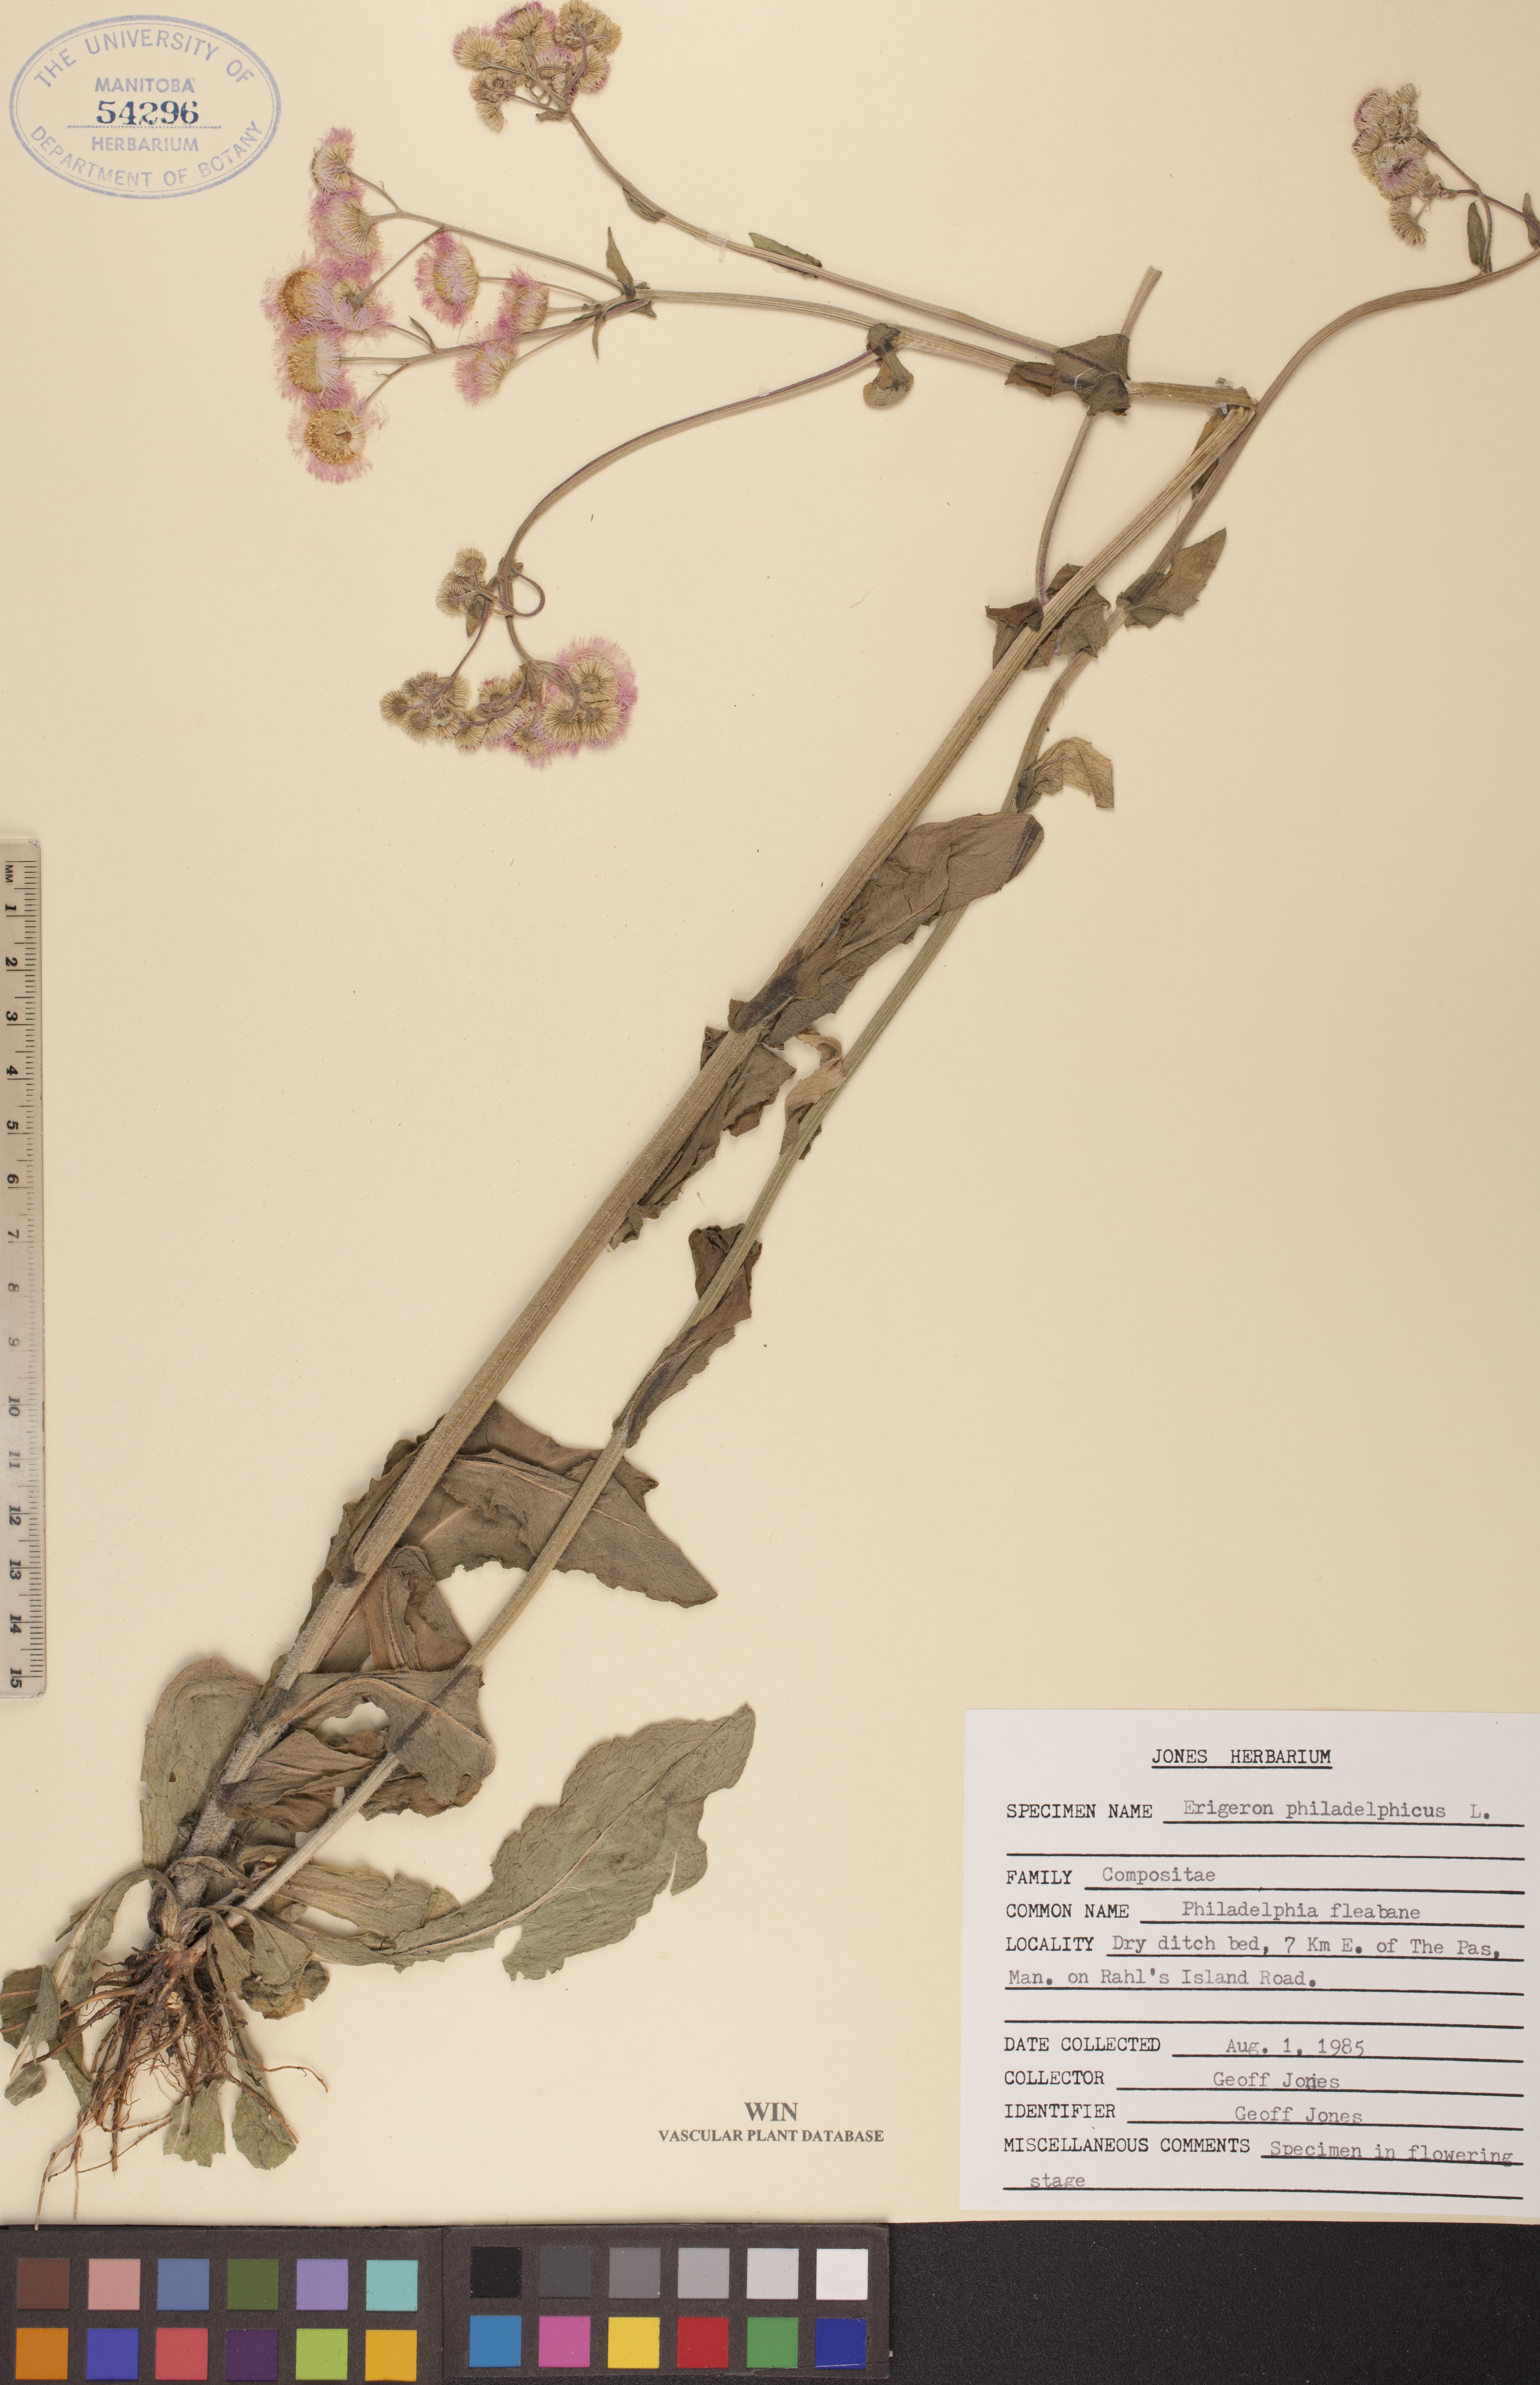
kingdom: Plantae
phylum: Tracheophyta
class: Magnoliopsida
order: Asterales
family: Asteraceae
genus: Erigeron
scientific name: Erigeron philadelphicus
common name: Robin's-plantain
